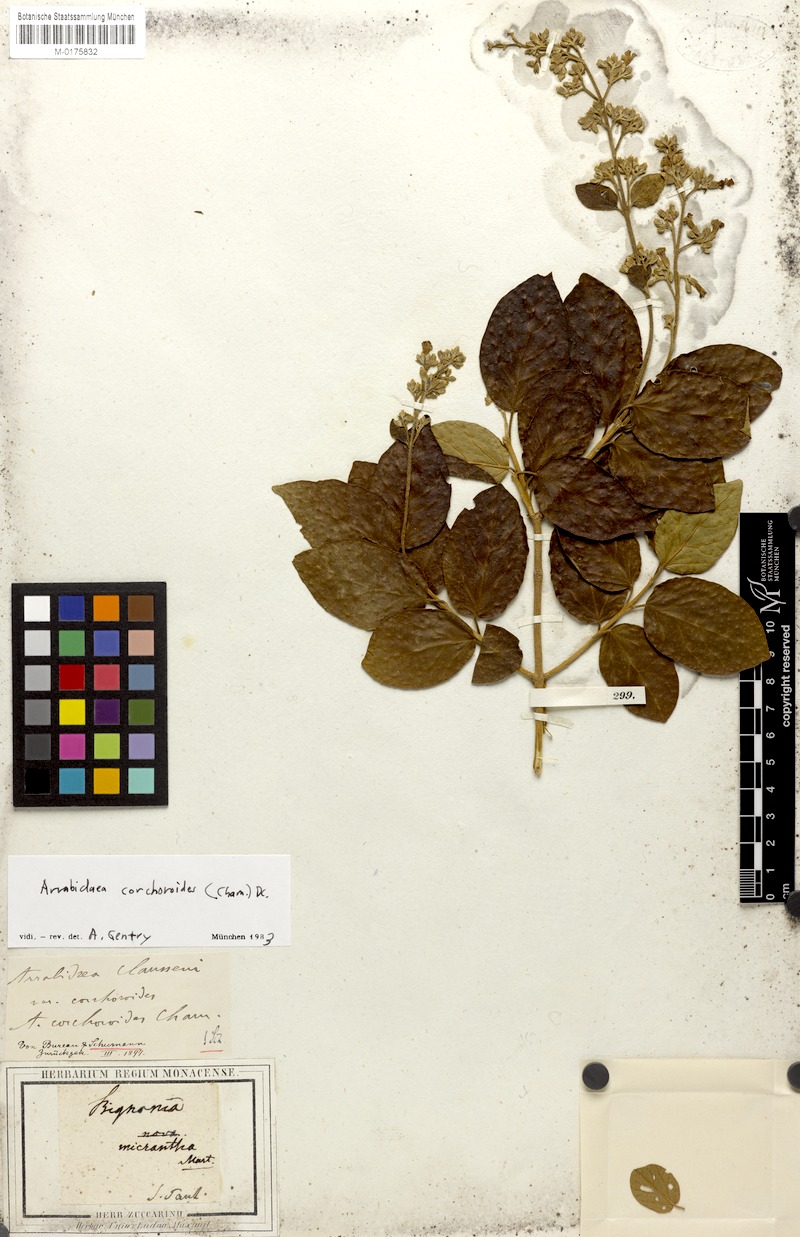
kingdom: Plantae
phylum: Tracheophyta
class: Magnoliopsida
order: Lamiales
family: Bignoniaceae
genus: Xylophragma
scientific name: Xylophragma corchoroides
